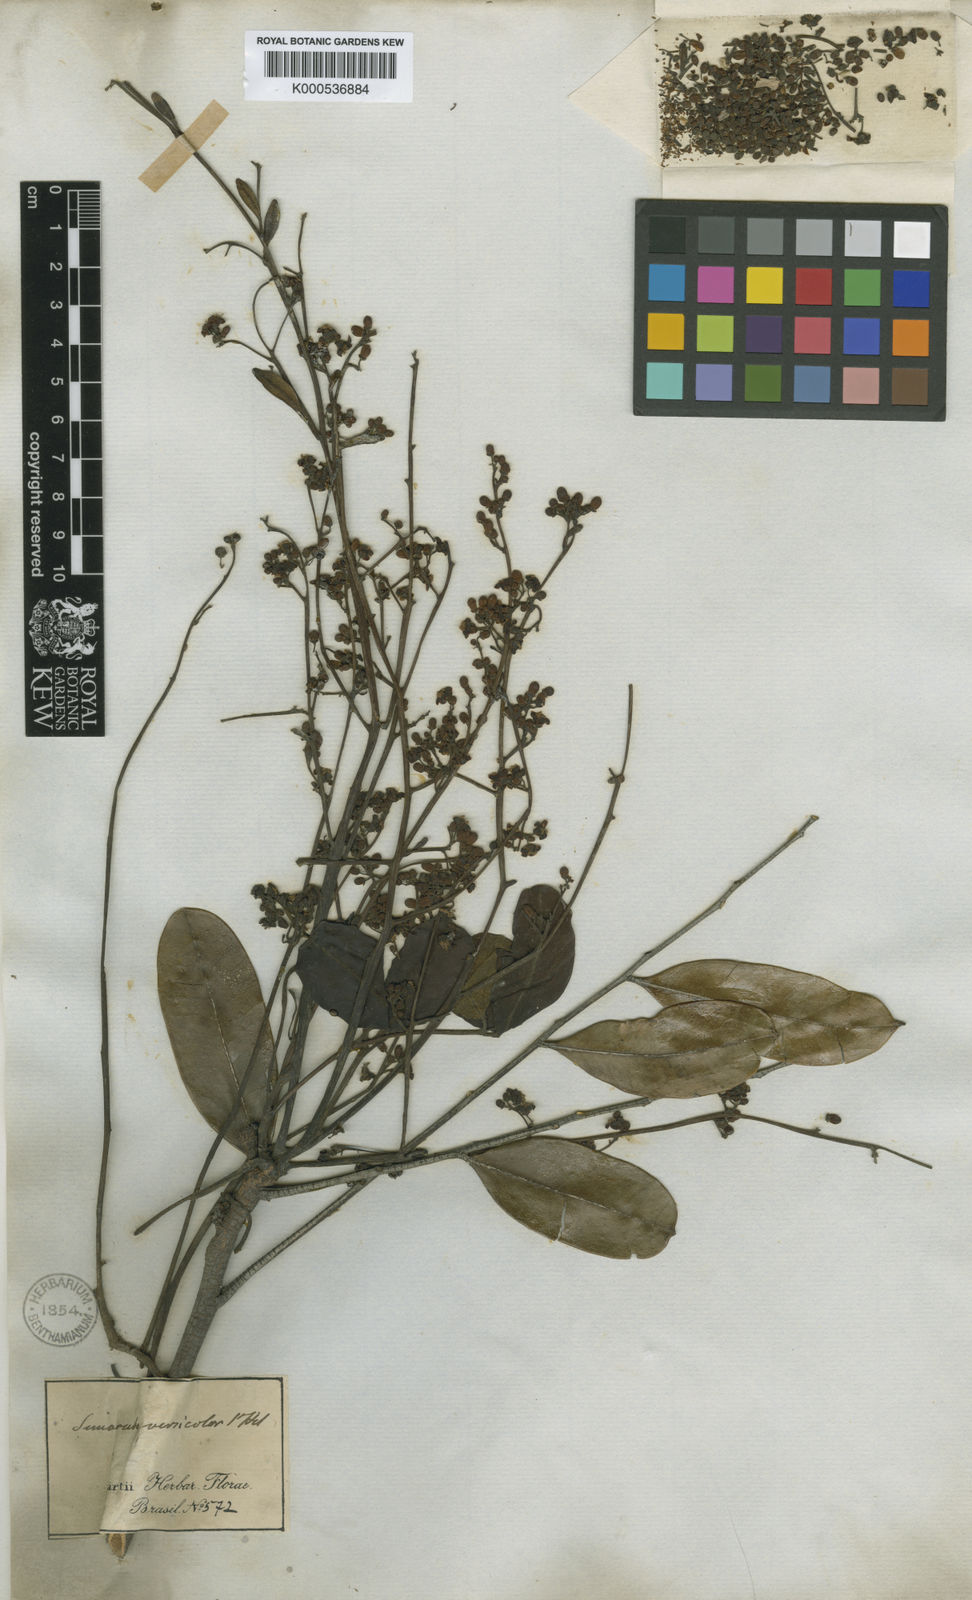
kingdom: Plantae
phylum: Tracheophyta
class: Magnoliopsida
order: Sapindales
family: Simaroubaceae
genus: Simarouba
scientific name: Simarouba versicolor
